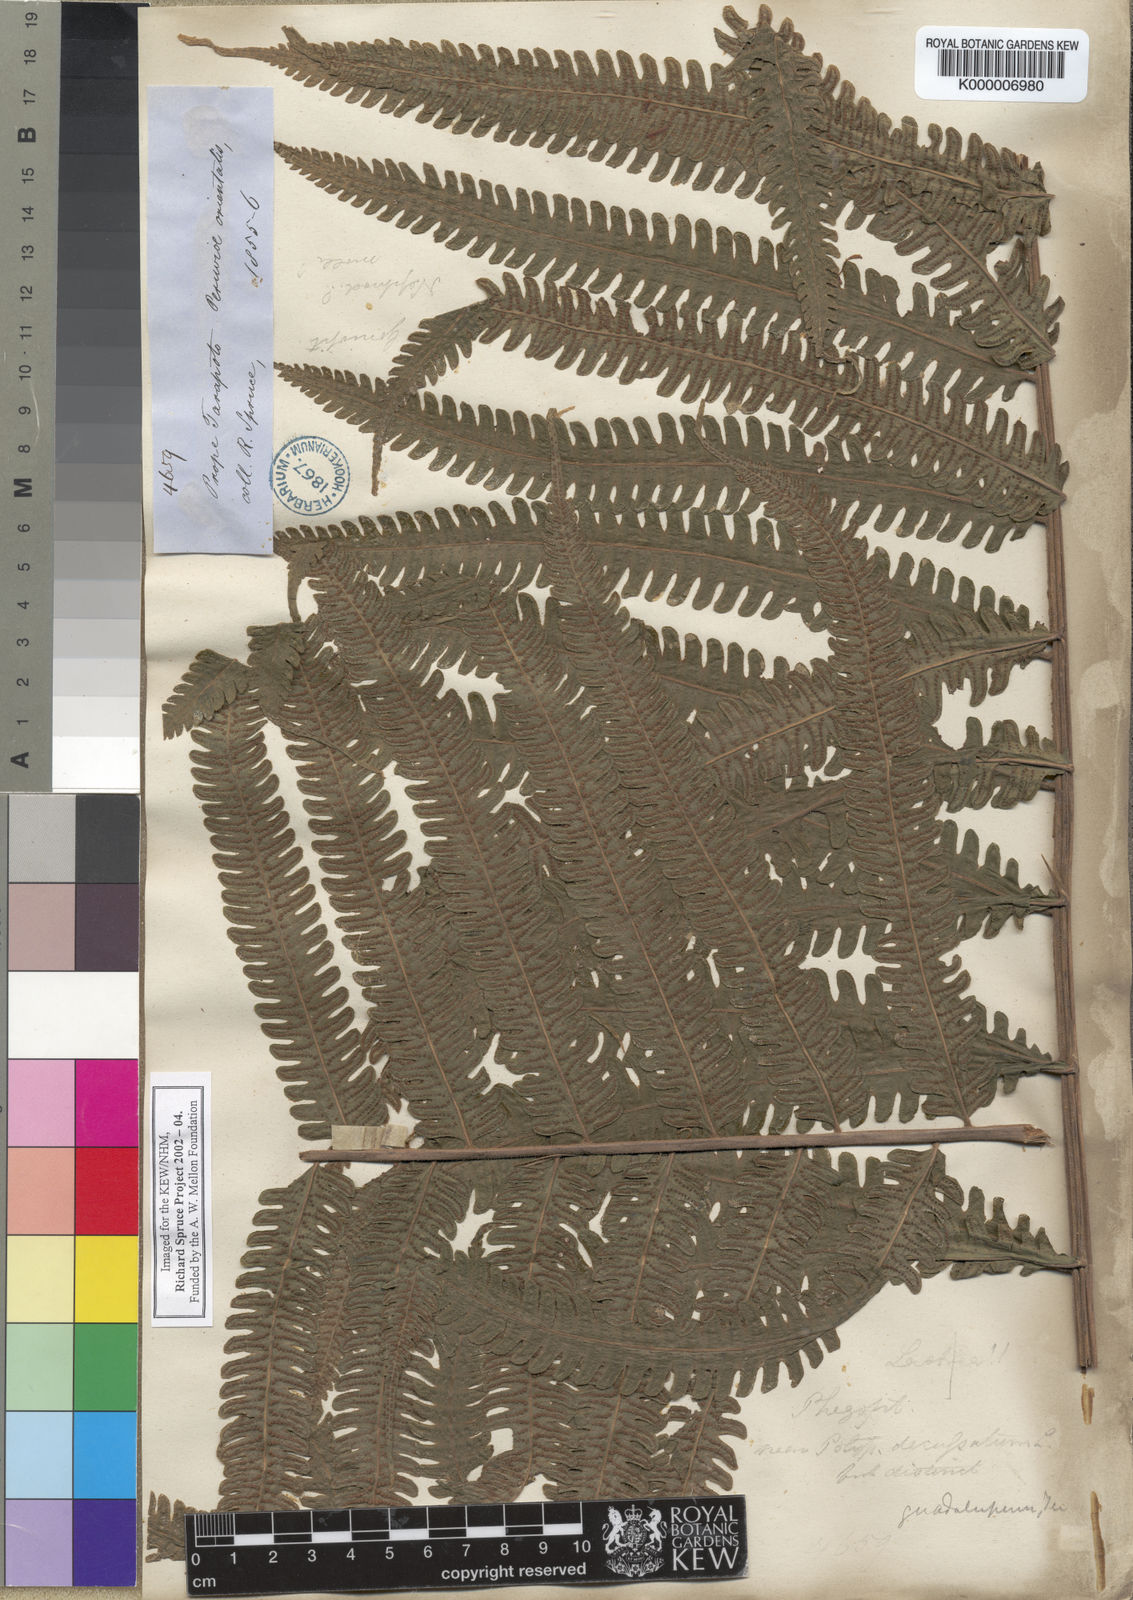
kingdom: Plantae
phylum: Tracheophyta
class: Polypodiopsida
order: Polypodiales
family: Thelypteridaceae
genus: Goniopteris
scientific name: Goniopteris pennata
